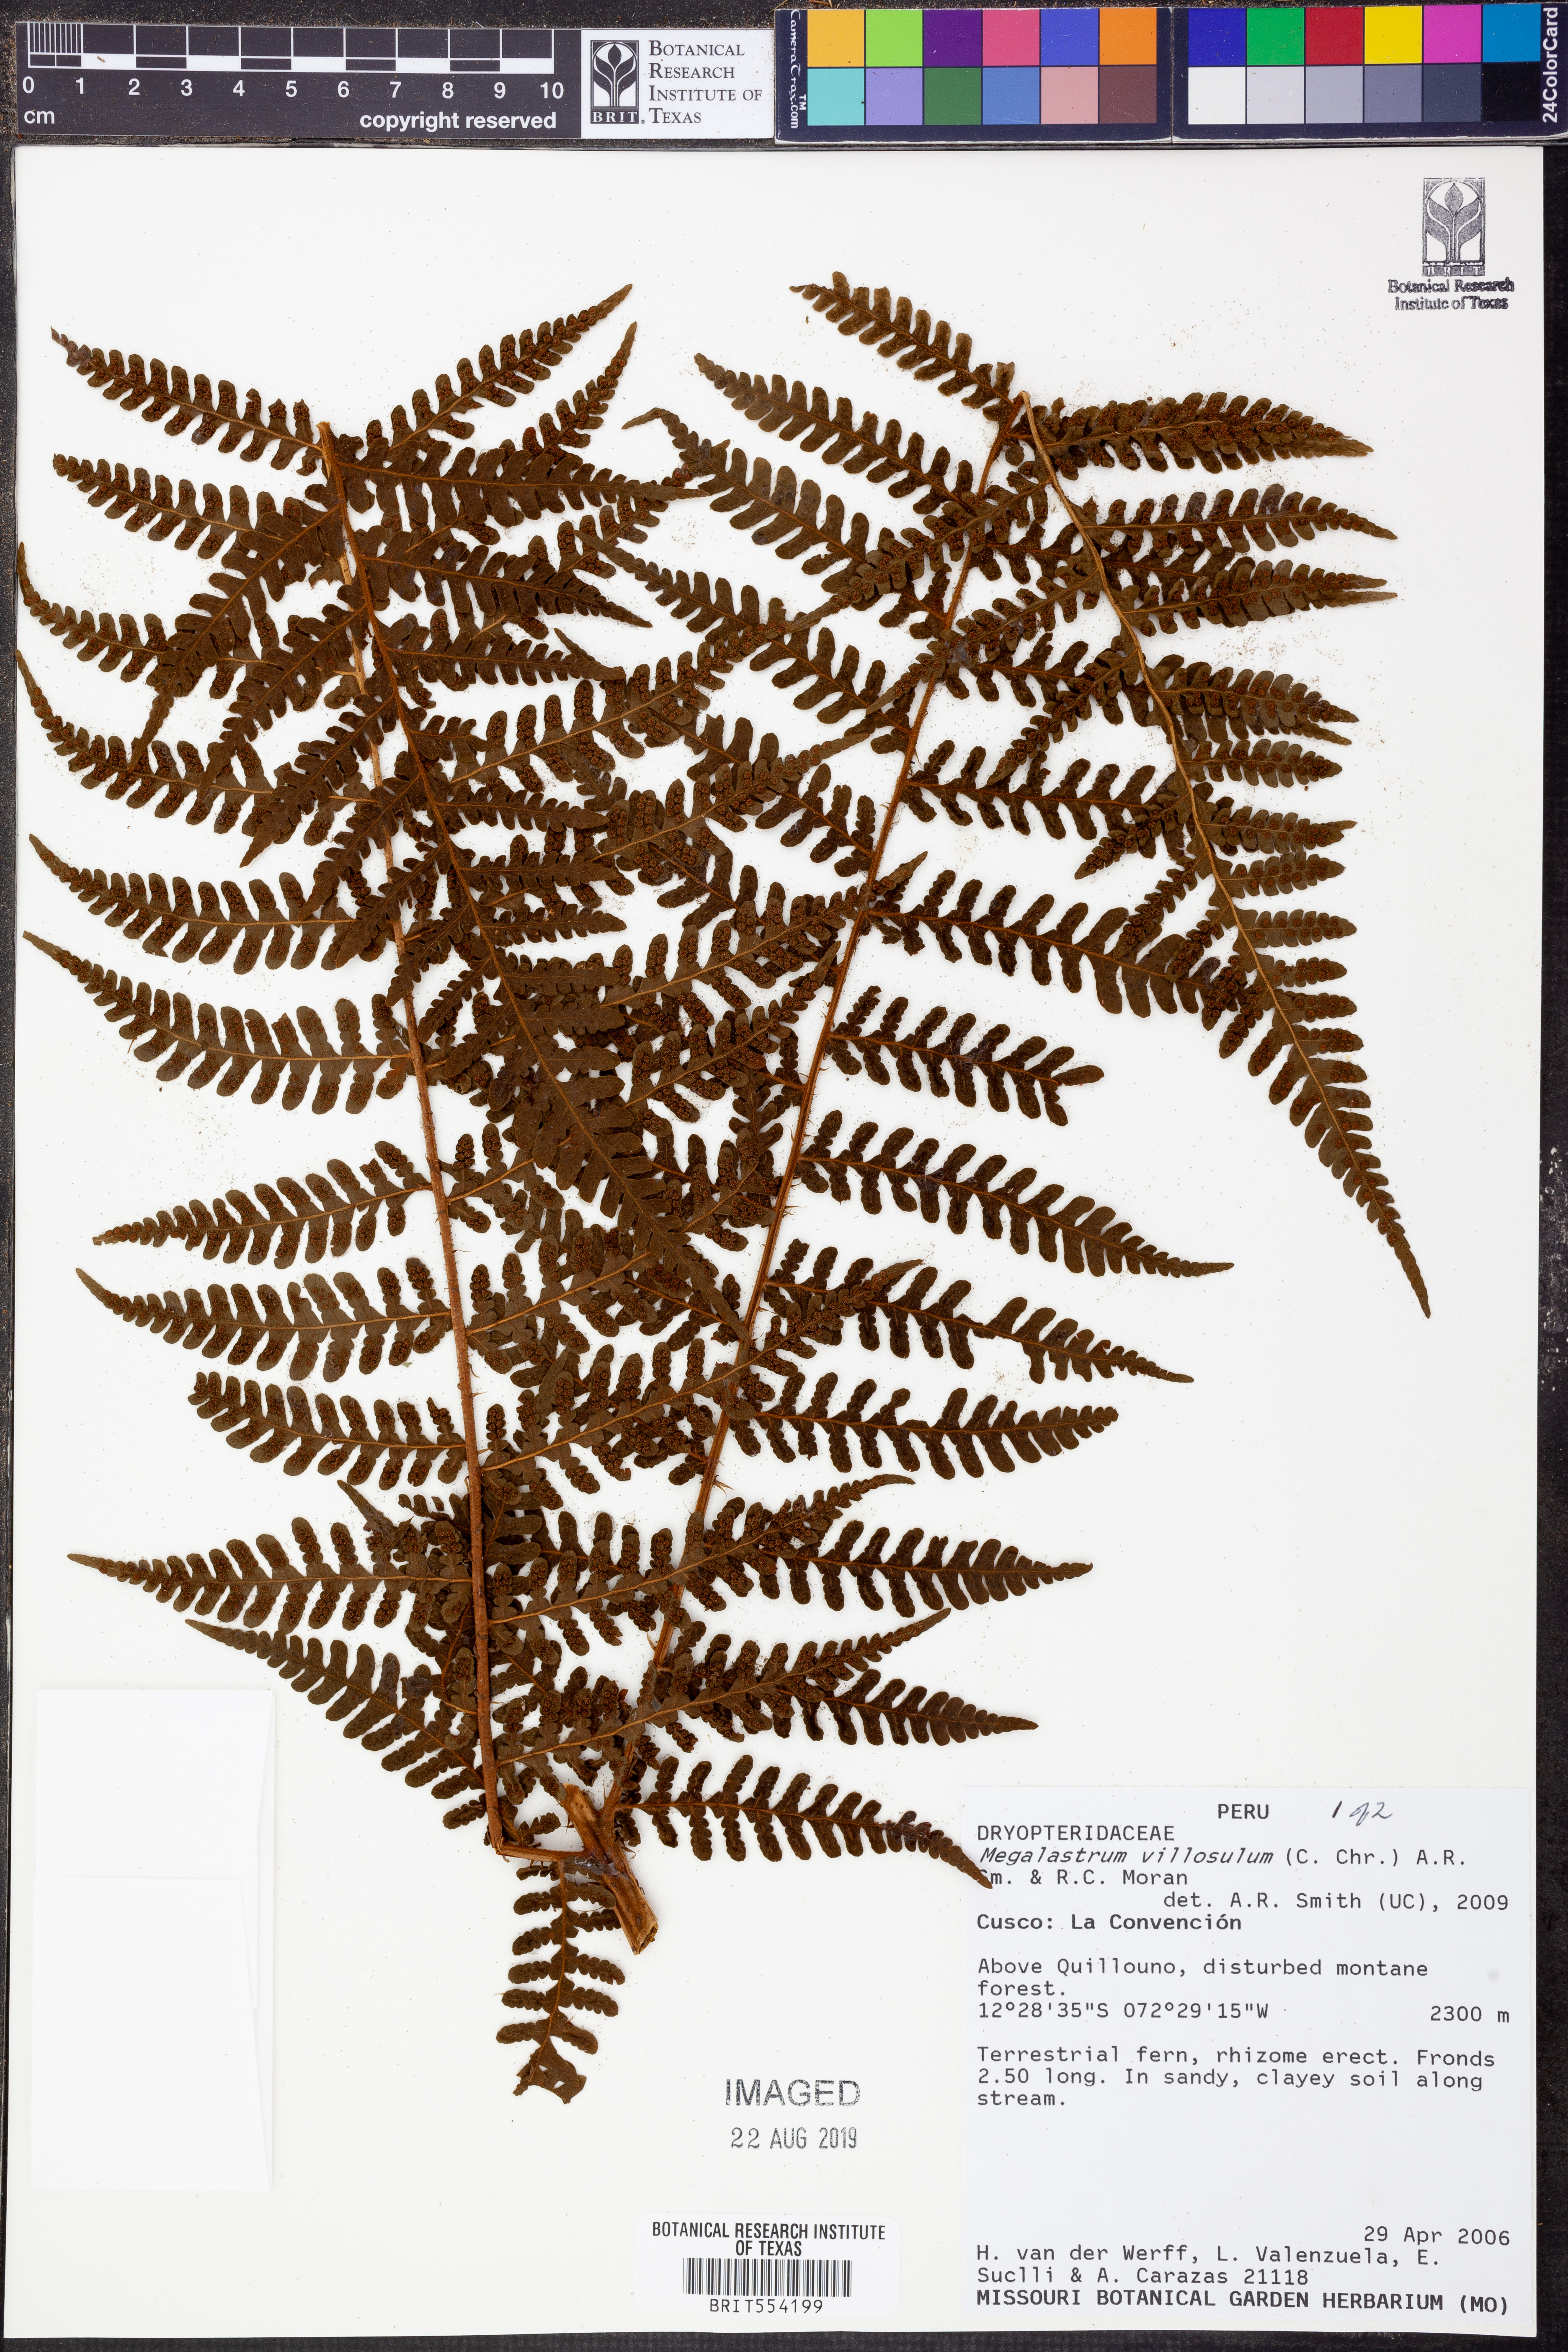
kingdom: Plantae
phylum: Tracheophyta
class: Polypodiopsida
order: Polypodiales
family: Dryopteridaceae
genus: Megalastrum
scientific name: Megalastrum andicola
